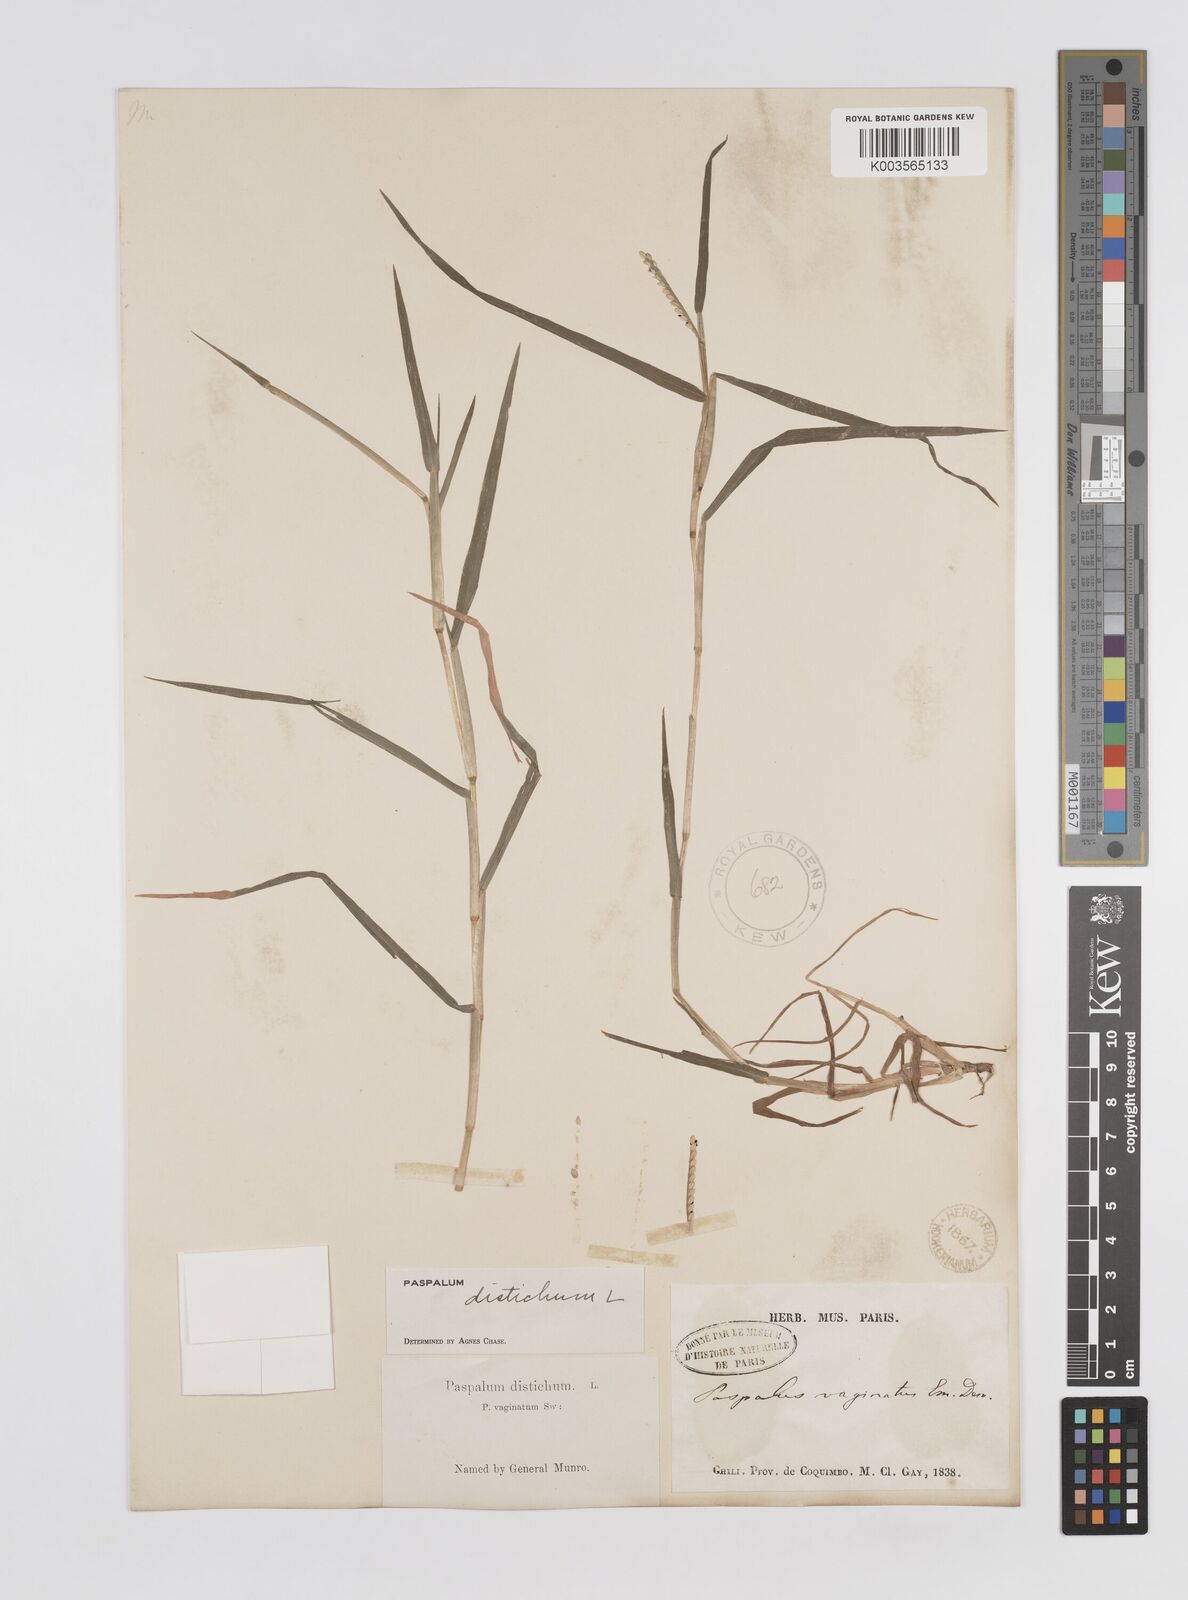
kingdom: Plantae
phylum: Tracheophyta
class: Liliopsida
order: Poales
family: Poaceae
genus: Paspalum
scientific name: Paspalum distichum
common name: Knotgrass
